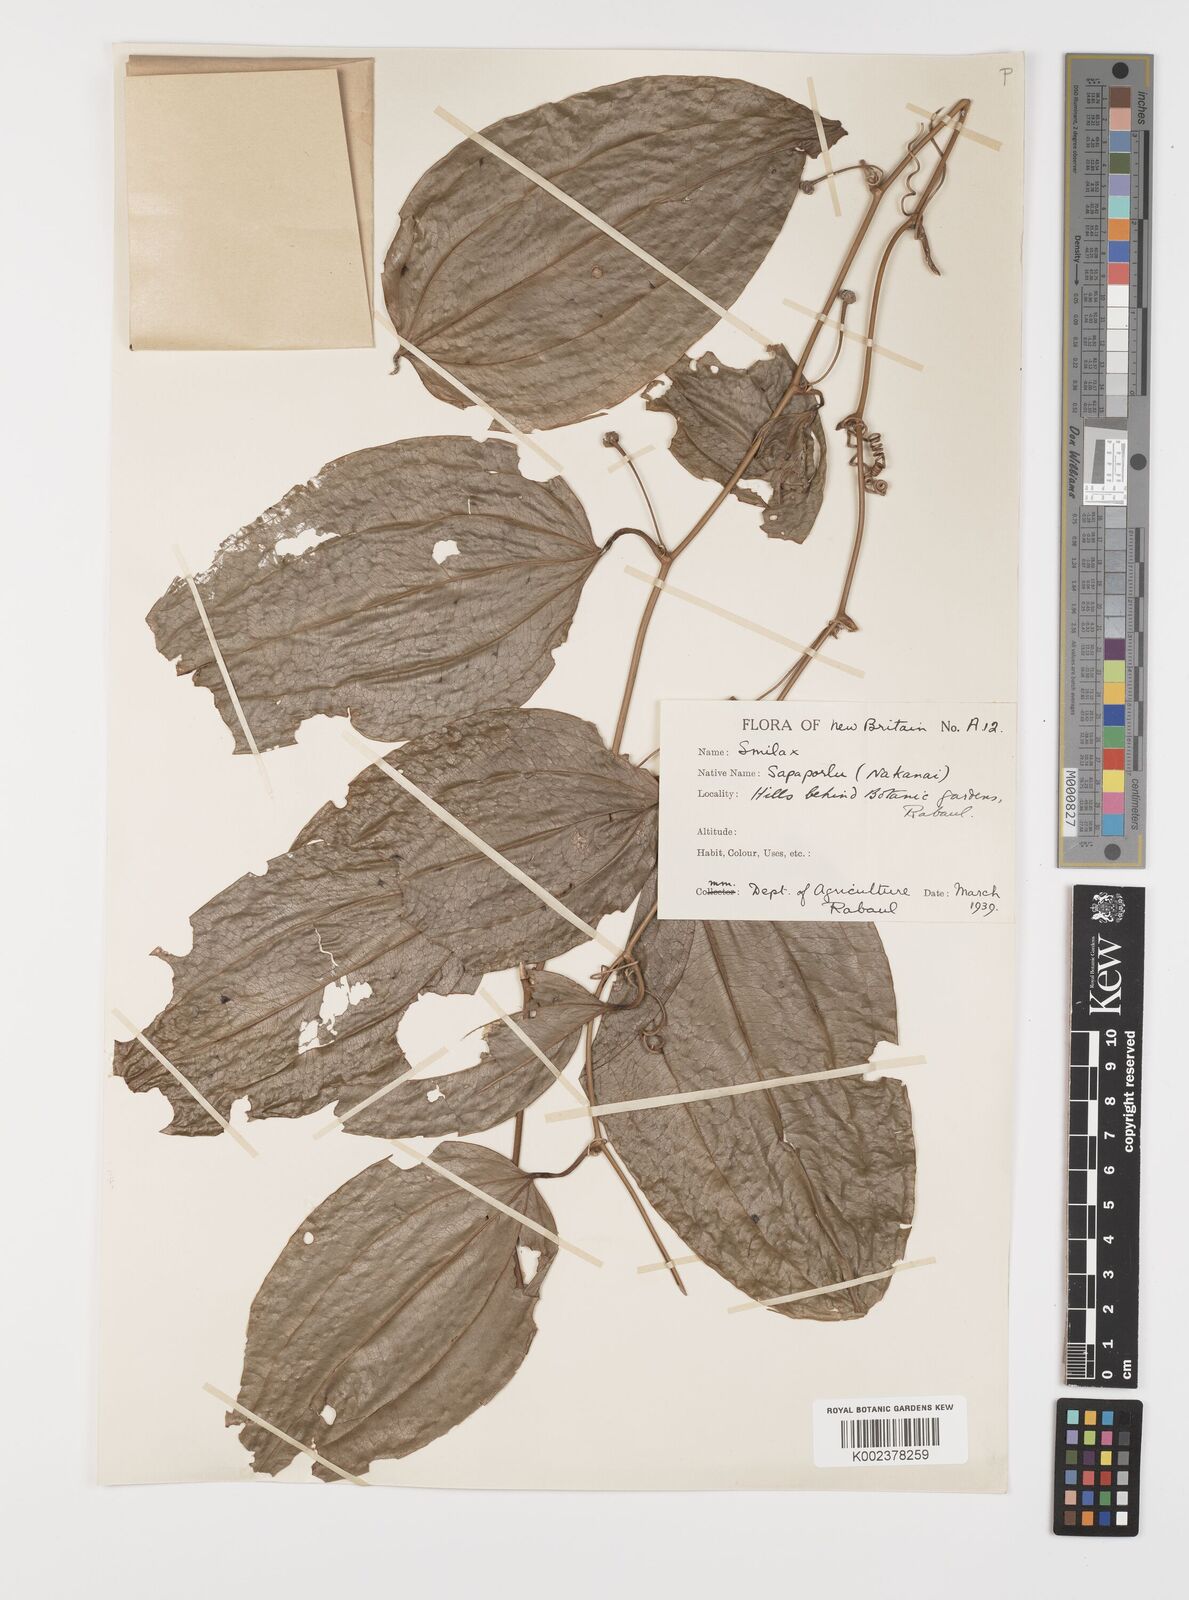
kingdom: Plantae
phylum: Tracheophyta
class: Liliopsida
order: Liliales
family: Smilacaceae
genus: Smilax
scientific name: Smilax
